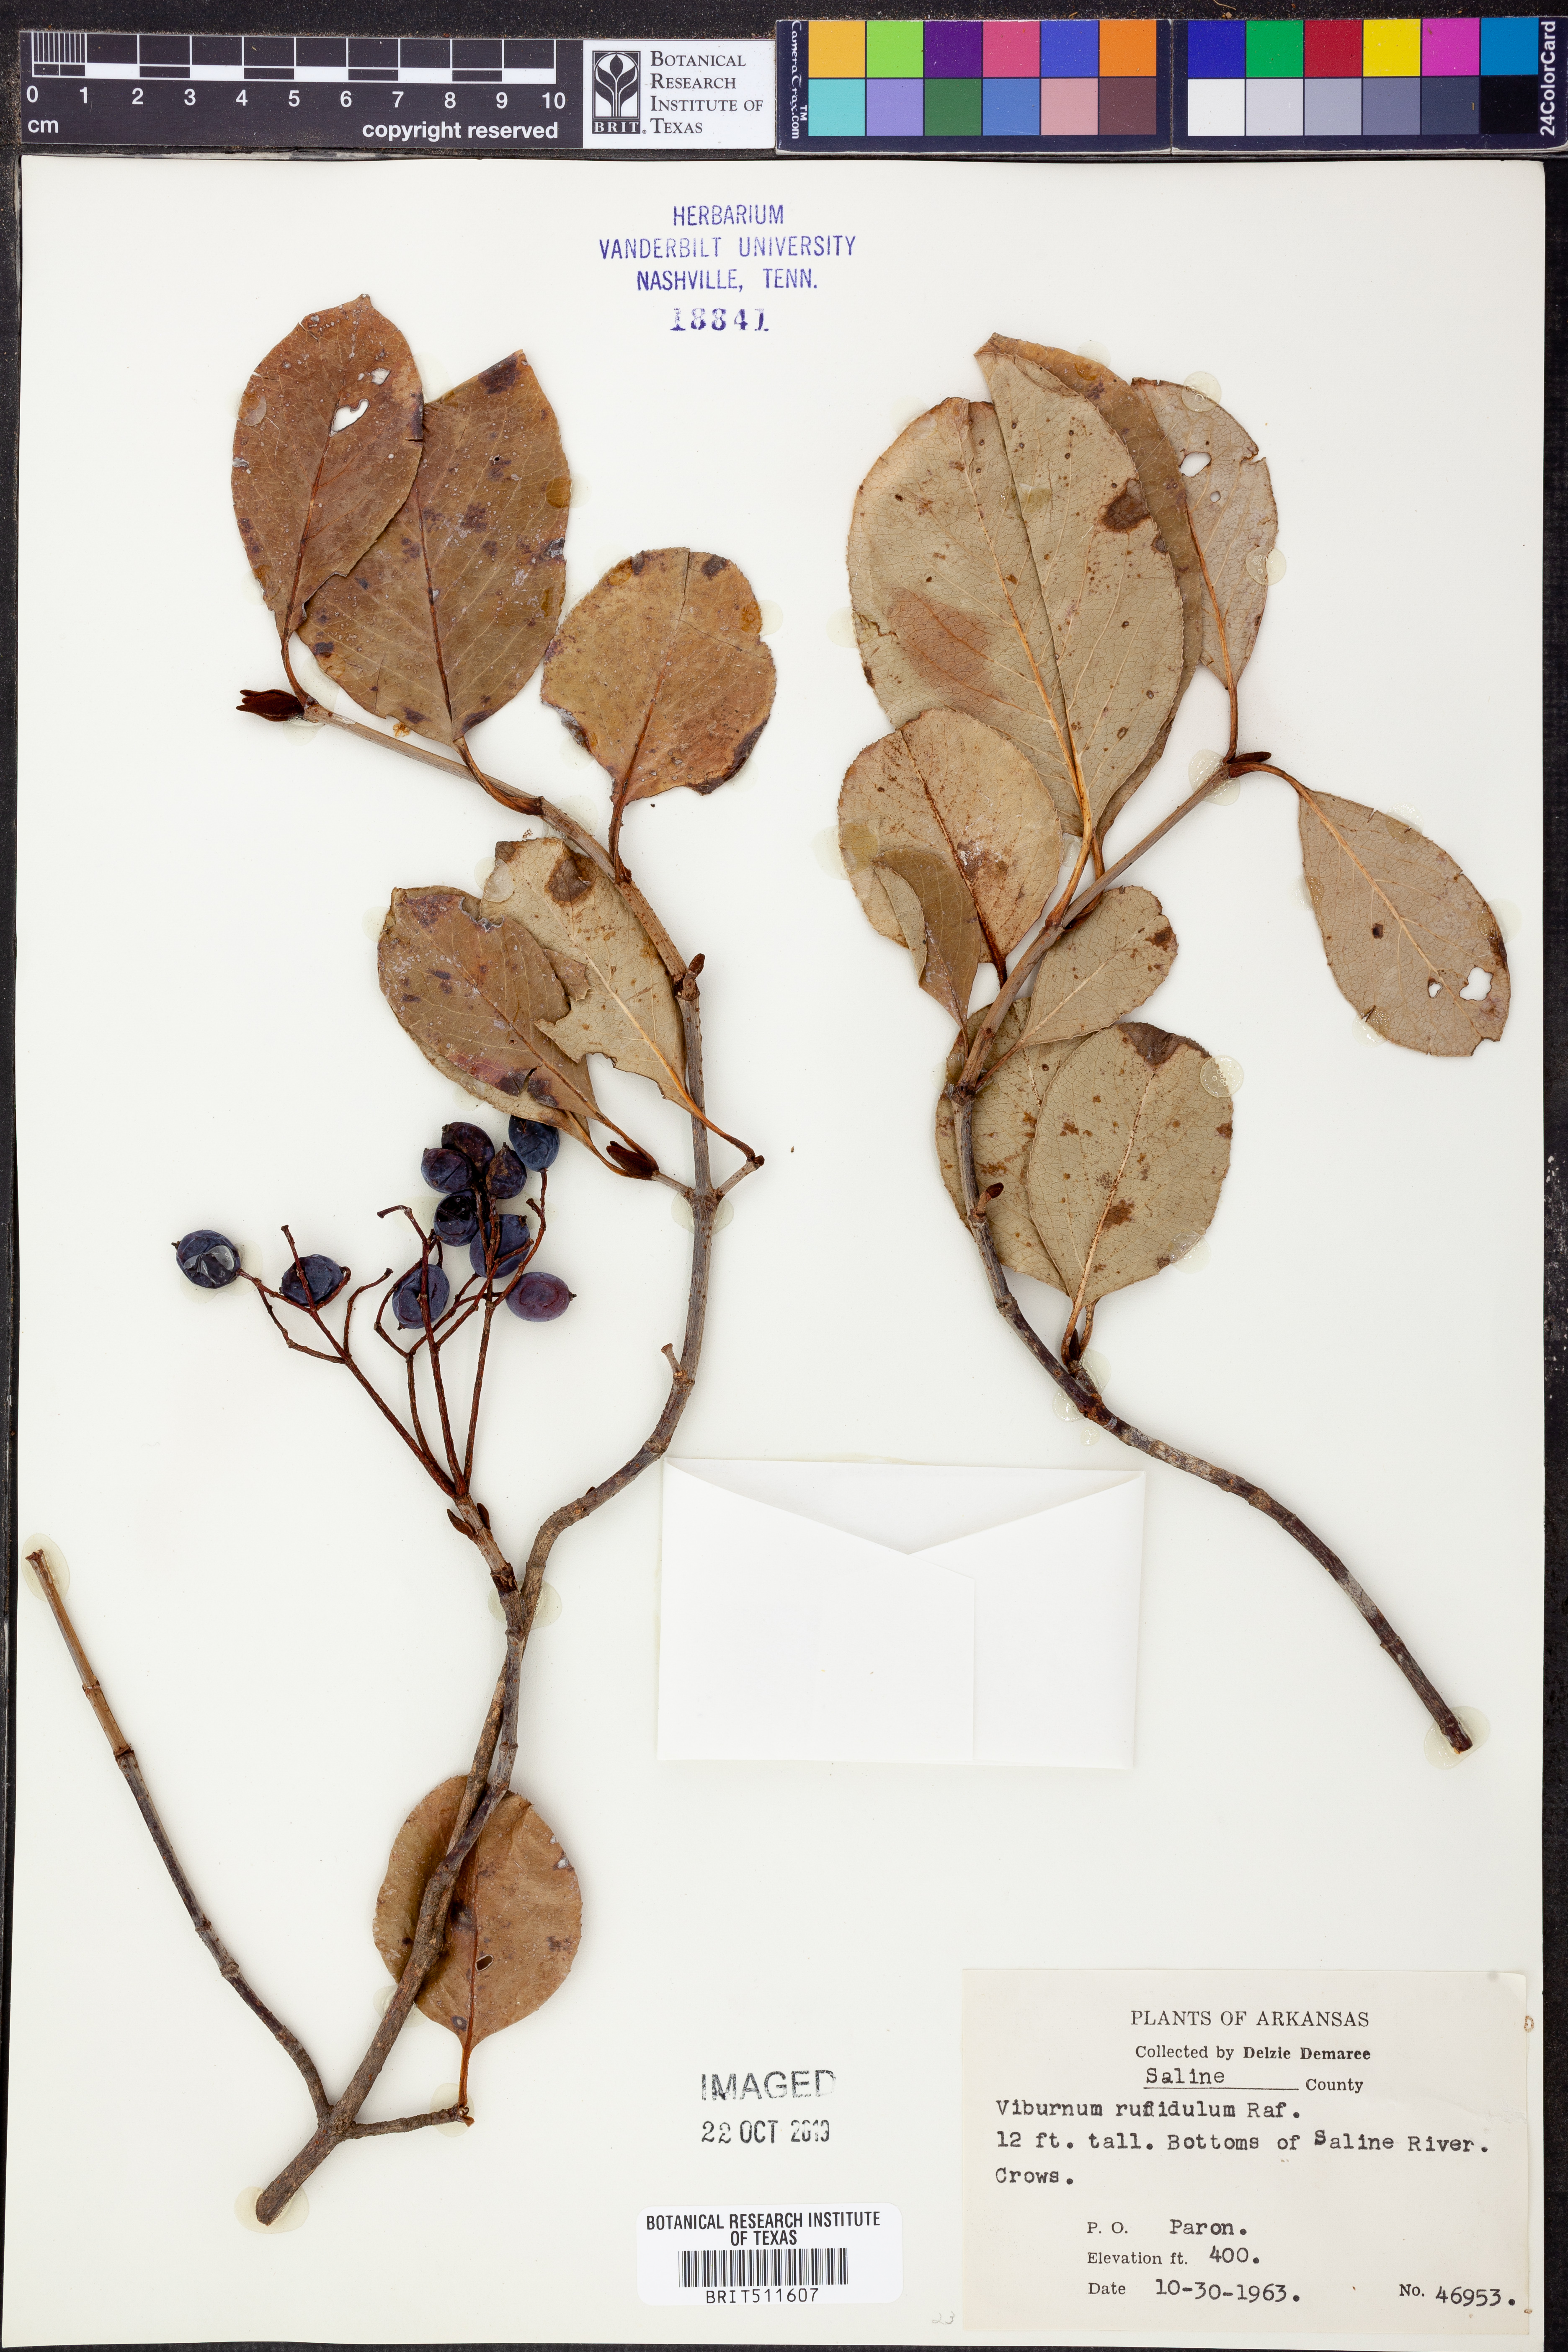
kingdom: Plantae
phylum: Tracheophyta
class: Magnoliopsida
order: Dipsacales
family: Viburnaceae
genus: Viburnum
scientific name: Viburnum rufidulum
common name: Blue haw
